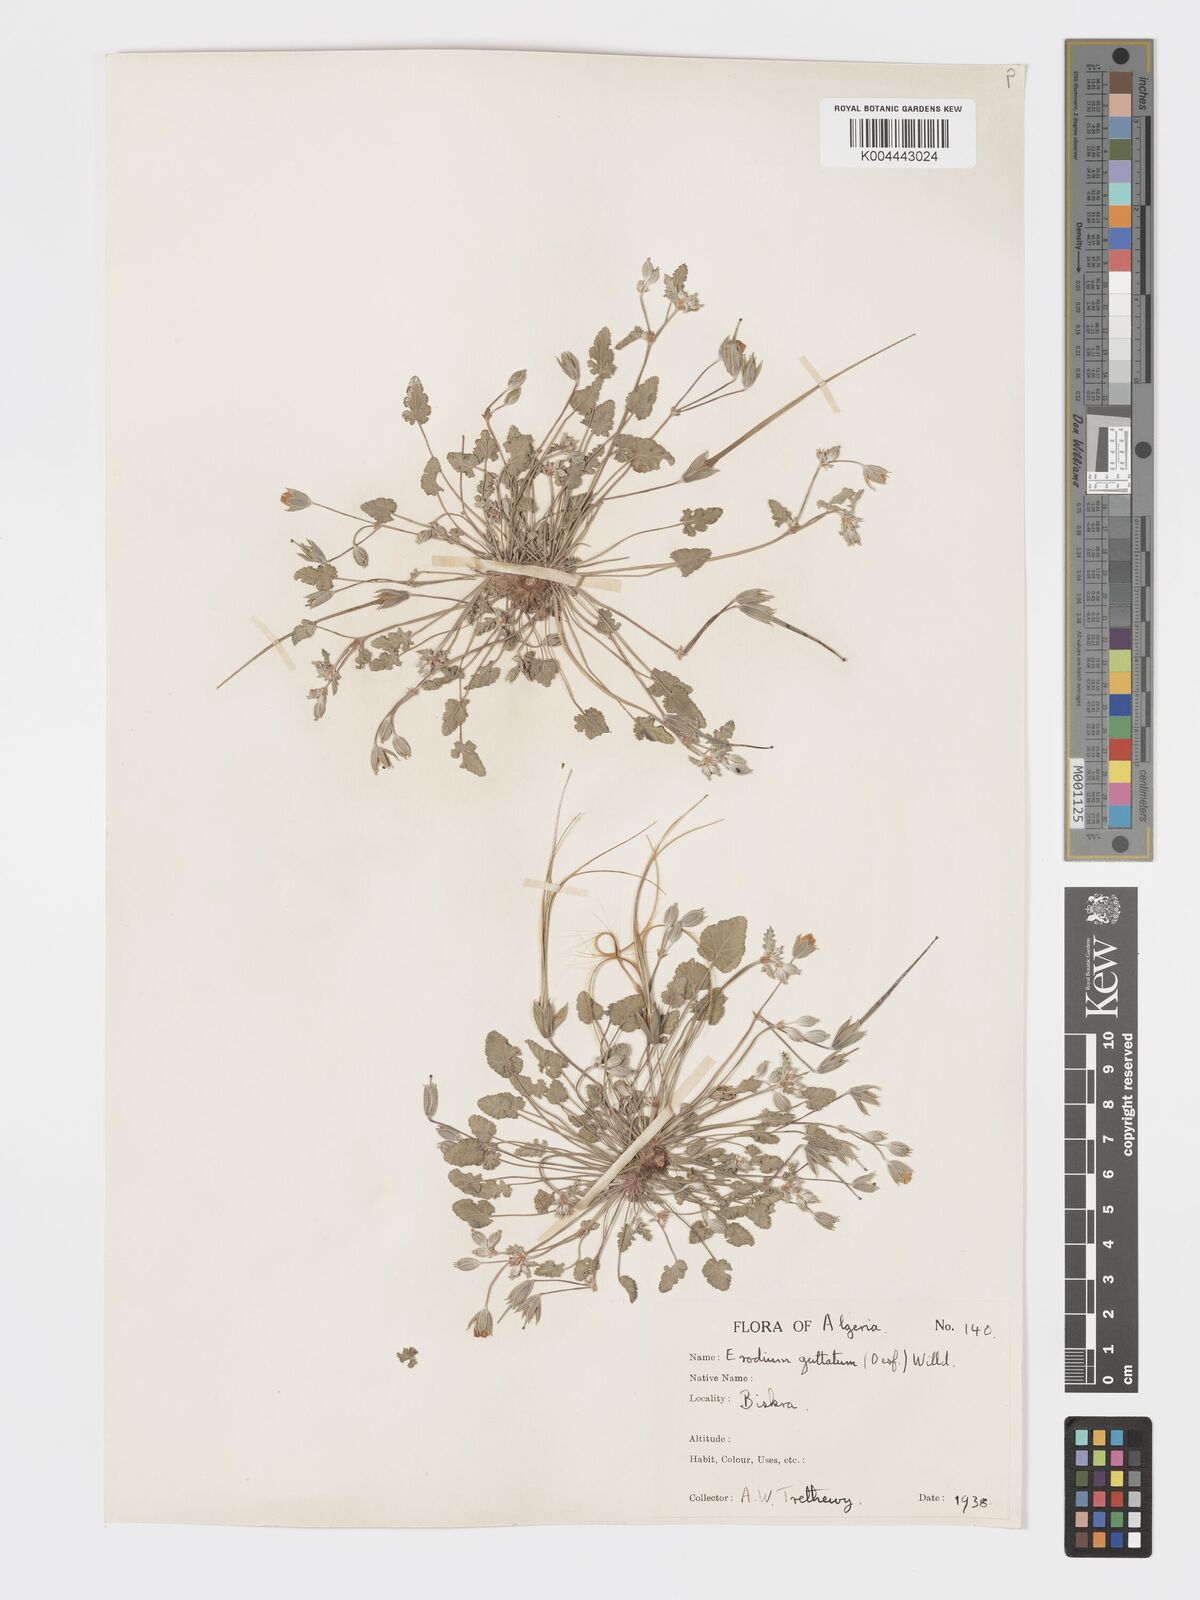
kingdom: Plantae
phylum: Tracheophyta
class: Magnoliopsida
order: Geraniales
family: Geraniaceae
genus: Erodium
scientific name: Erodium guttatum
